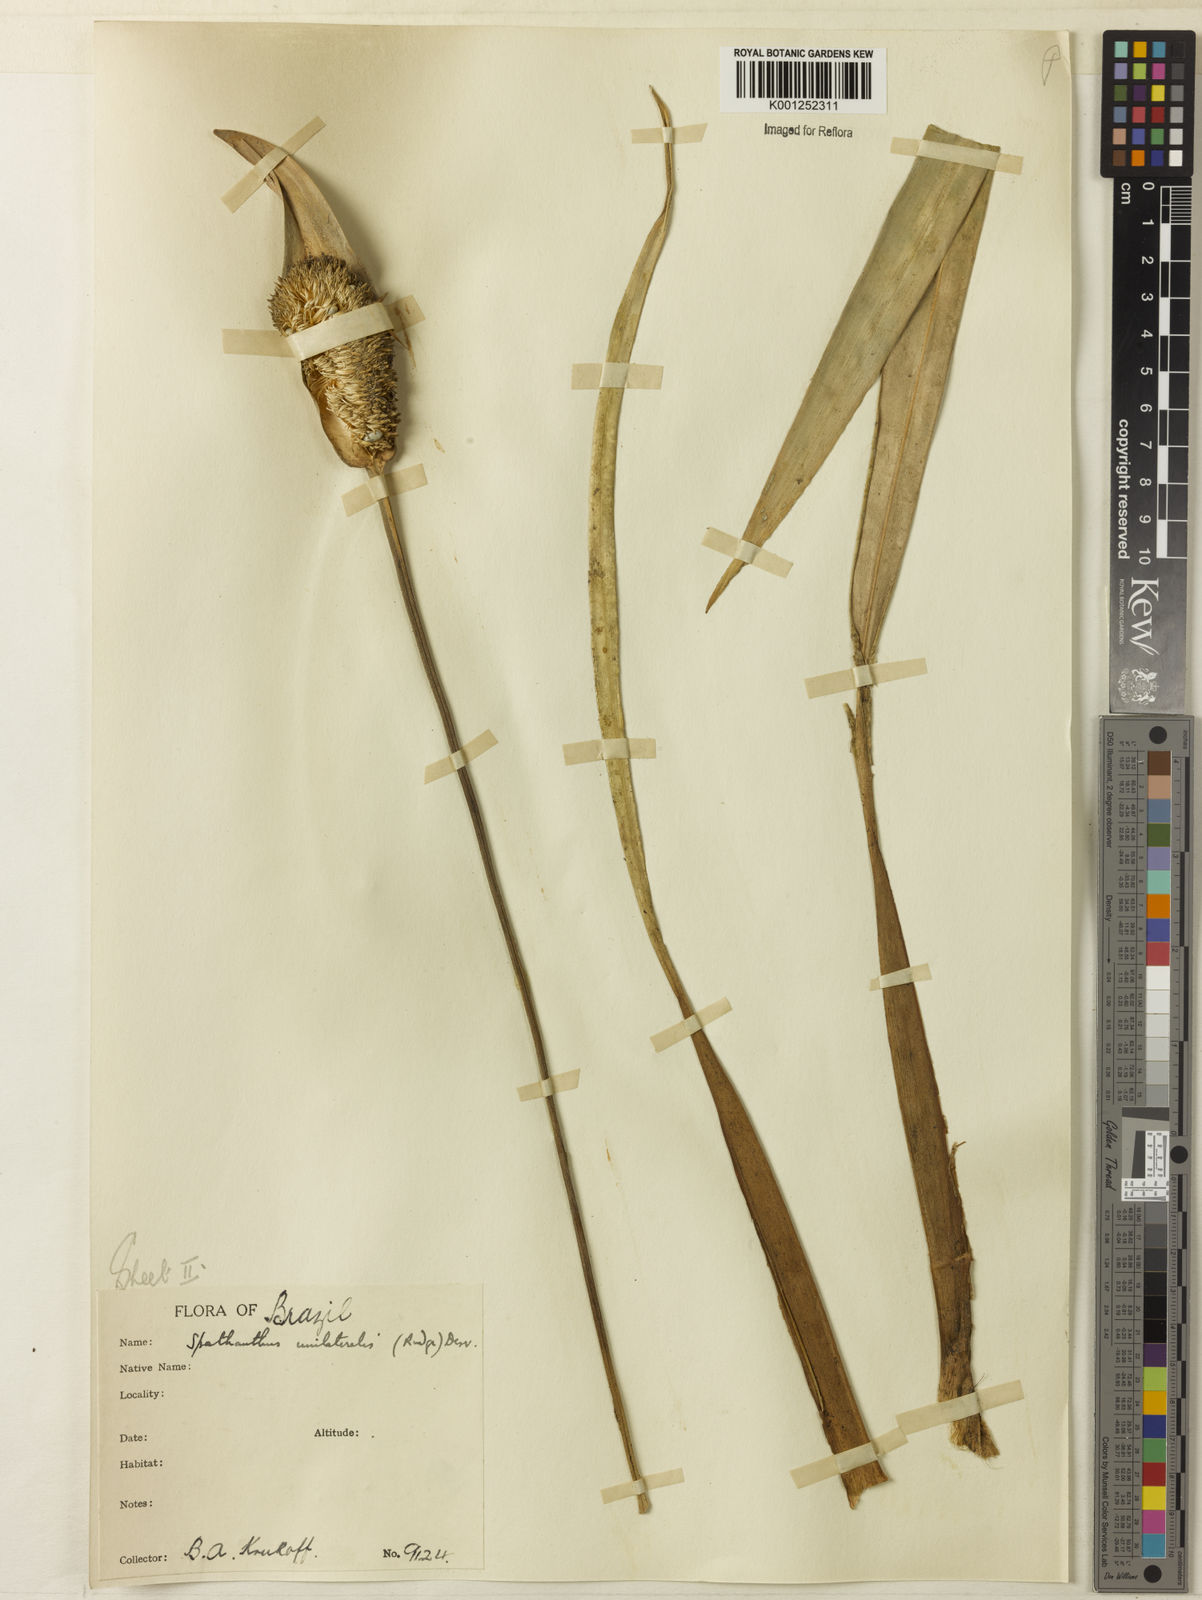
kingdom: Plantae
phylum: Tracheophyta
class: Liliopsida
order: Poales
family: Rapateaceae
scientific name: Rapateaceae
